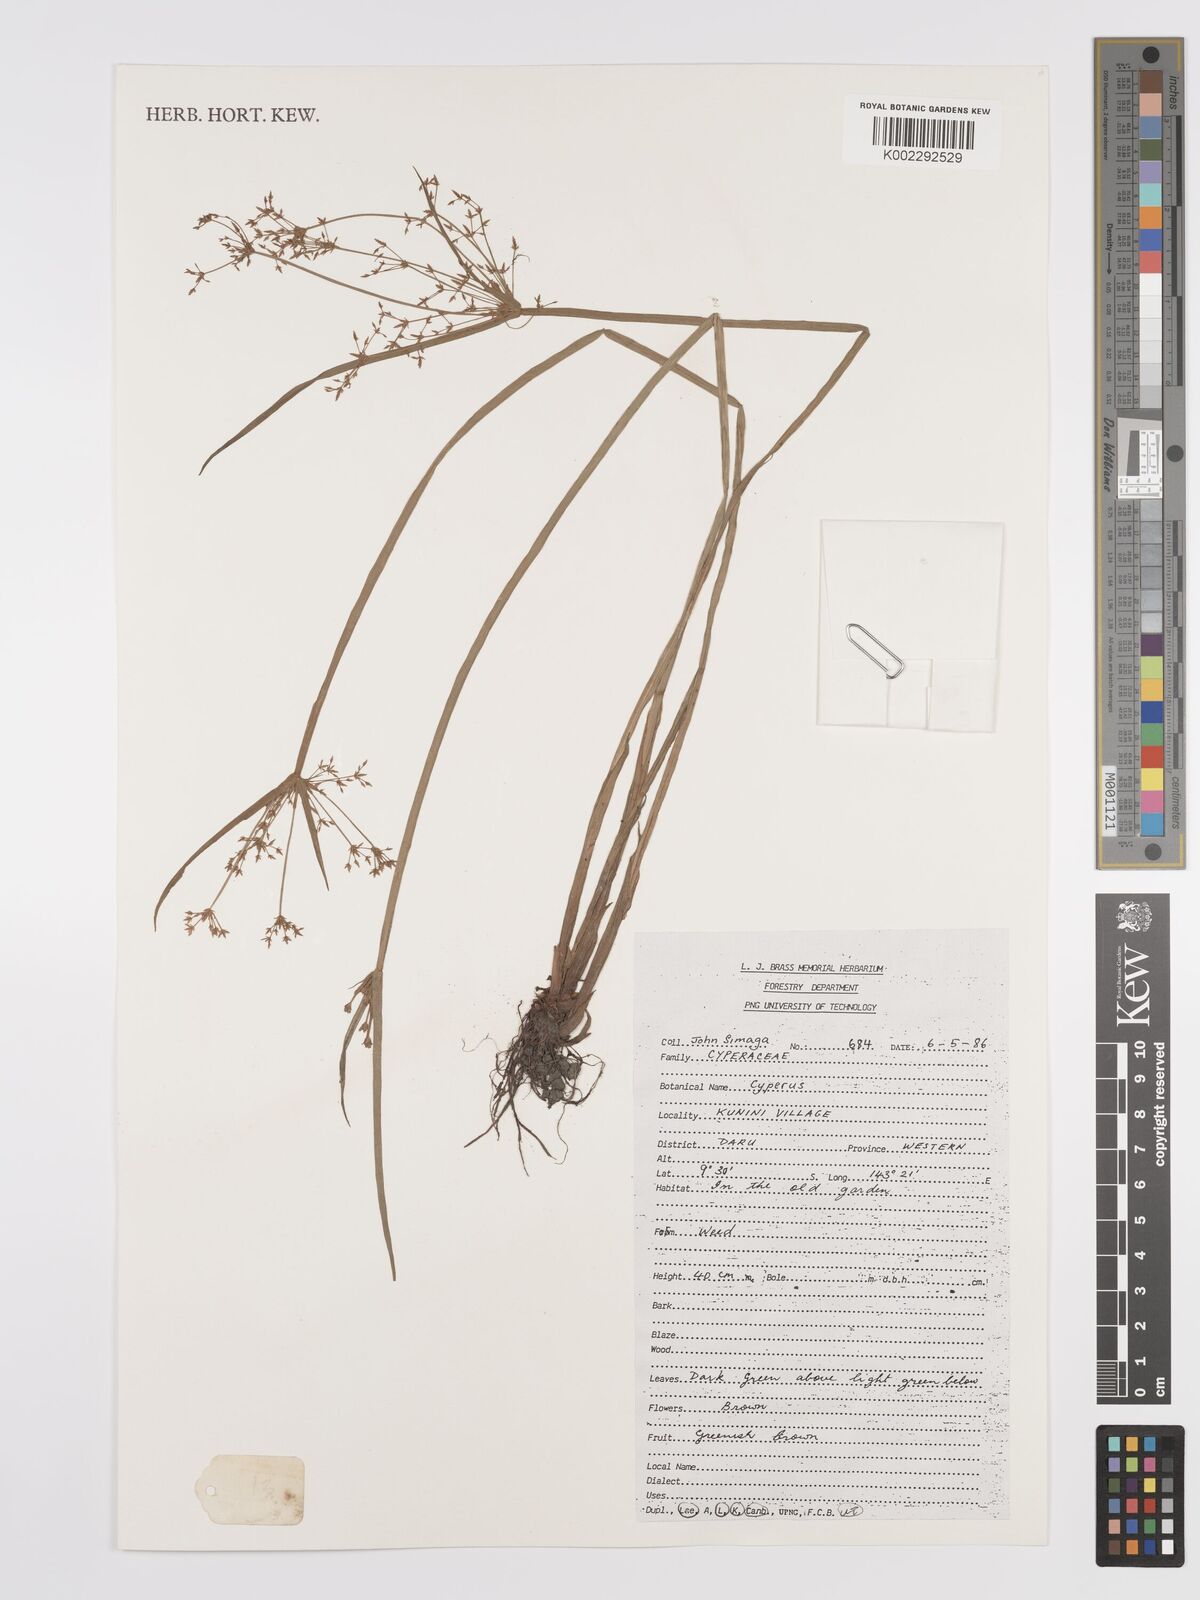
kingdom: Plantae
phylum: Tracheophyta
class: Liliopsida
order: Poales
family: Cyperaceae
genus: Cyperus
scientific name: Cyperus
